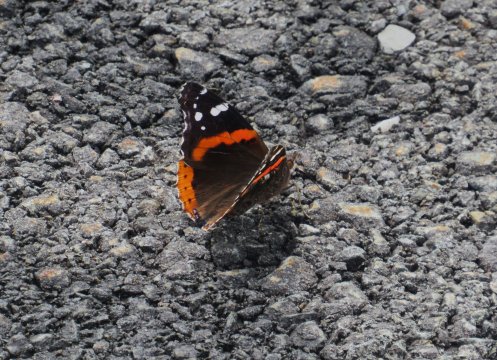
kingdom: Animalia
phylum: Arthropoda
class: Insecta
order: Lepidoptera
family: Nymphalidae
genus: Vanessa
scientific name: Vanessa atalanta
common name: Red Admiral
